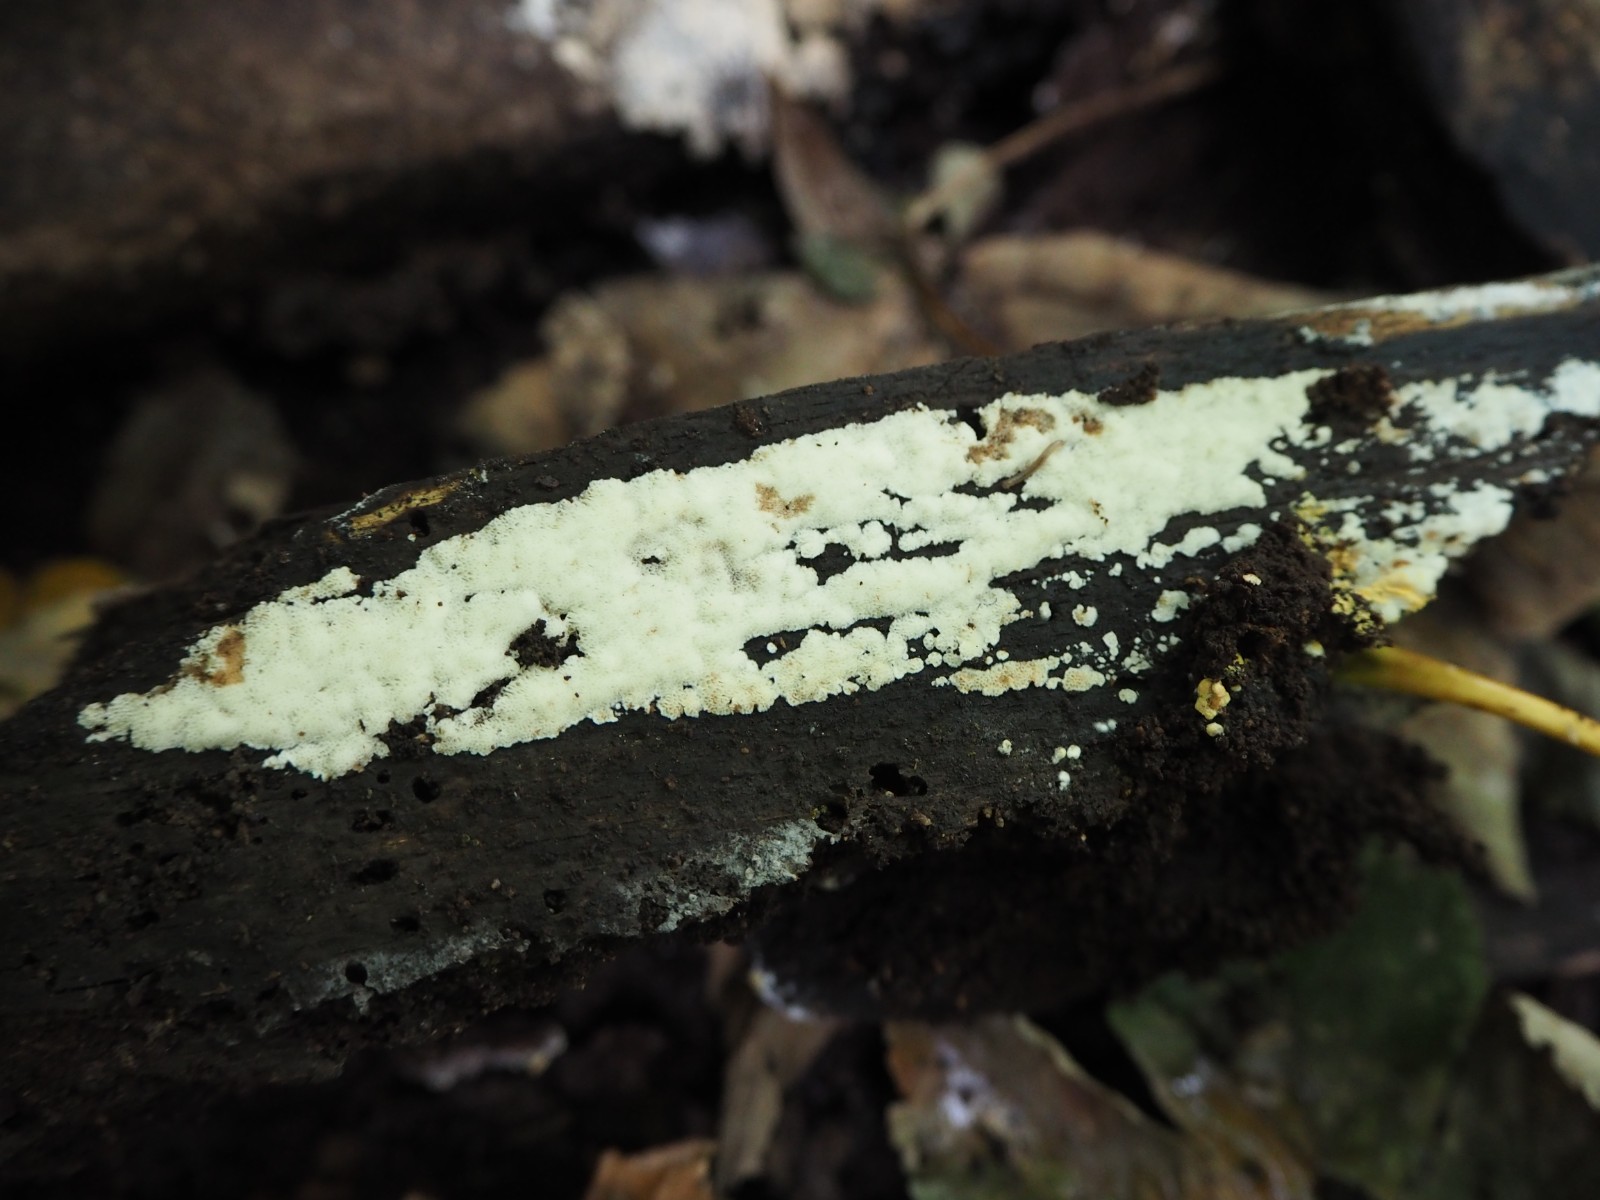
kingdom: Fungi
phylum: Basidiomycota
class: Agaricomycetes
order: Polyporales
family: Meripilaceae
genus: Rigidoporus
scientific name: Rigidoporus sanguinolentus
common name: blod-skorpeporesvamp
